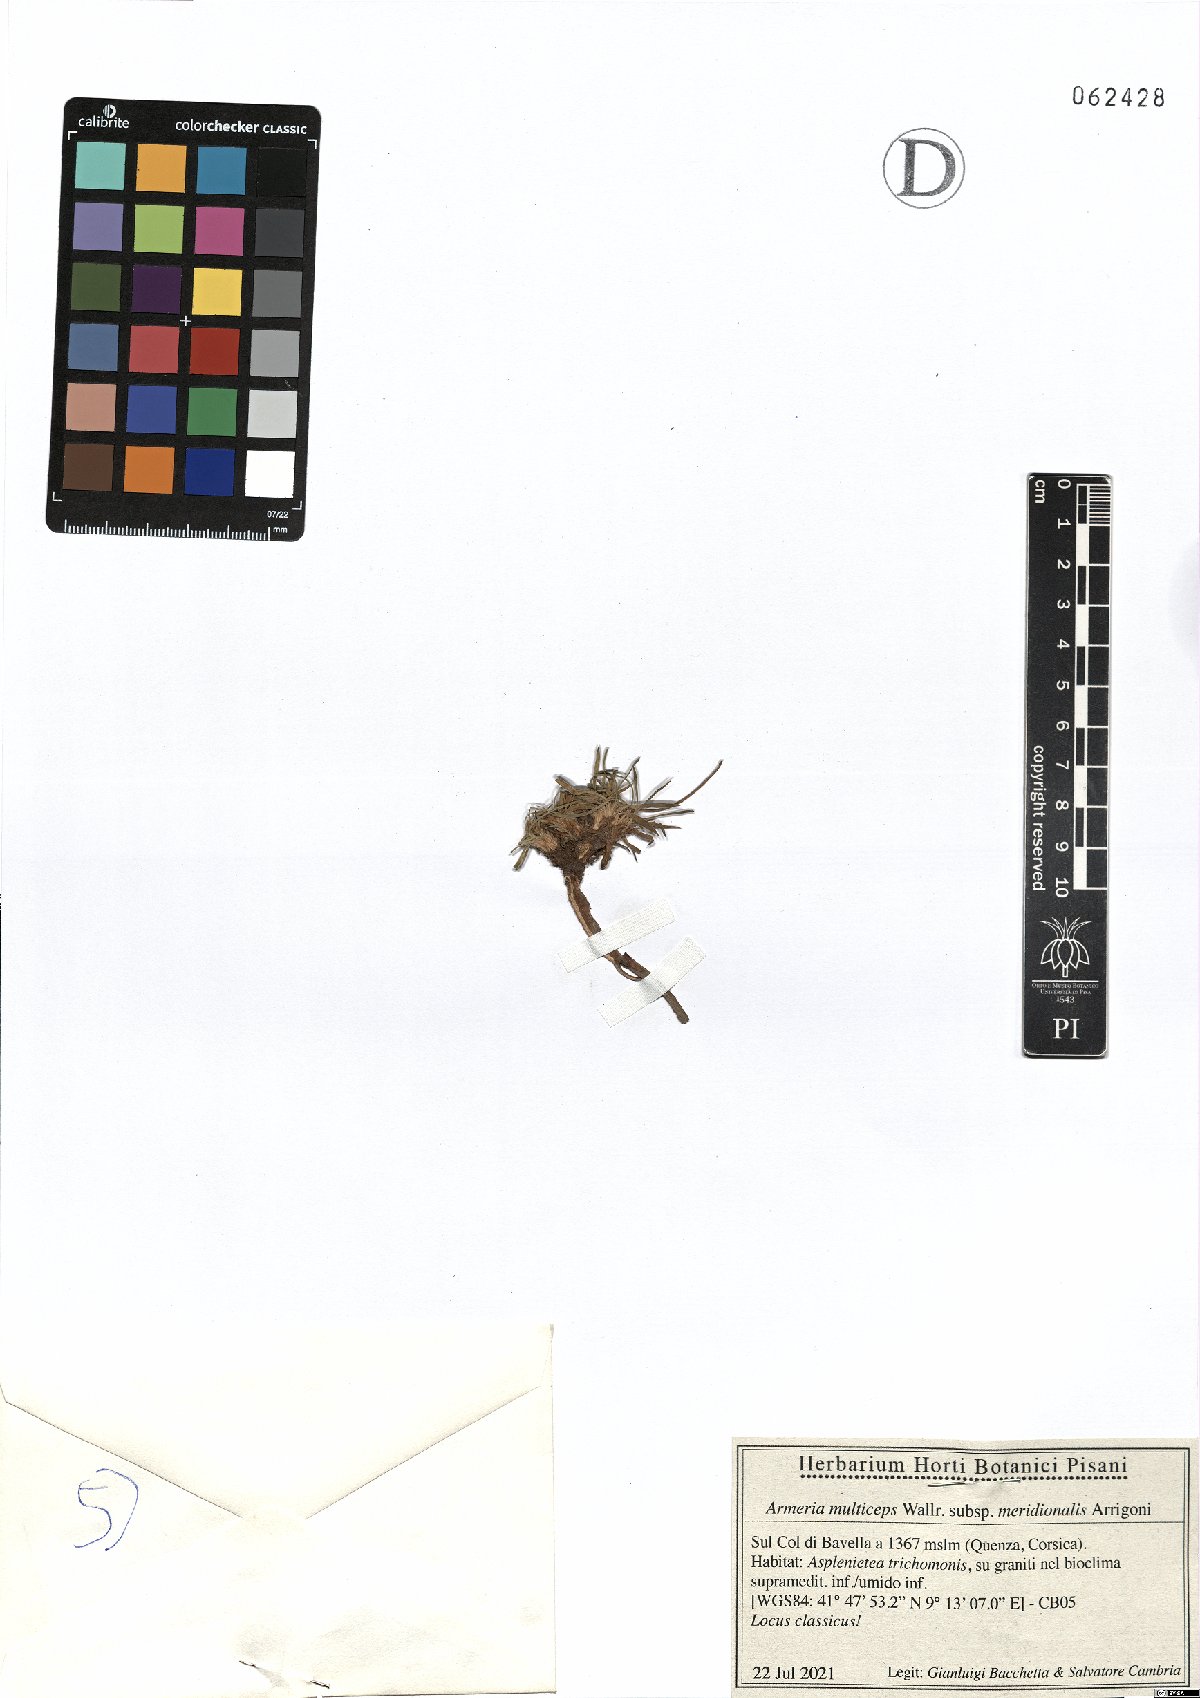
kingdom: Plantae
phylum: Tracheophyta
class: Magnoliopsida
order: Caryophyllales
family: Plumbaginaceae
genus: Armeria
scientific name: Armeria multiceps
